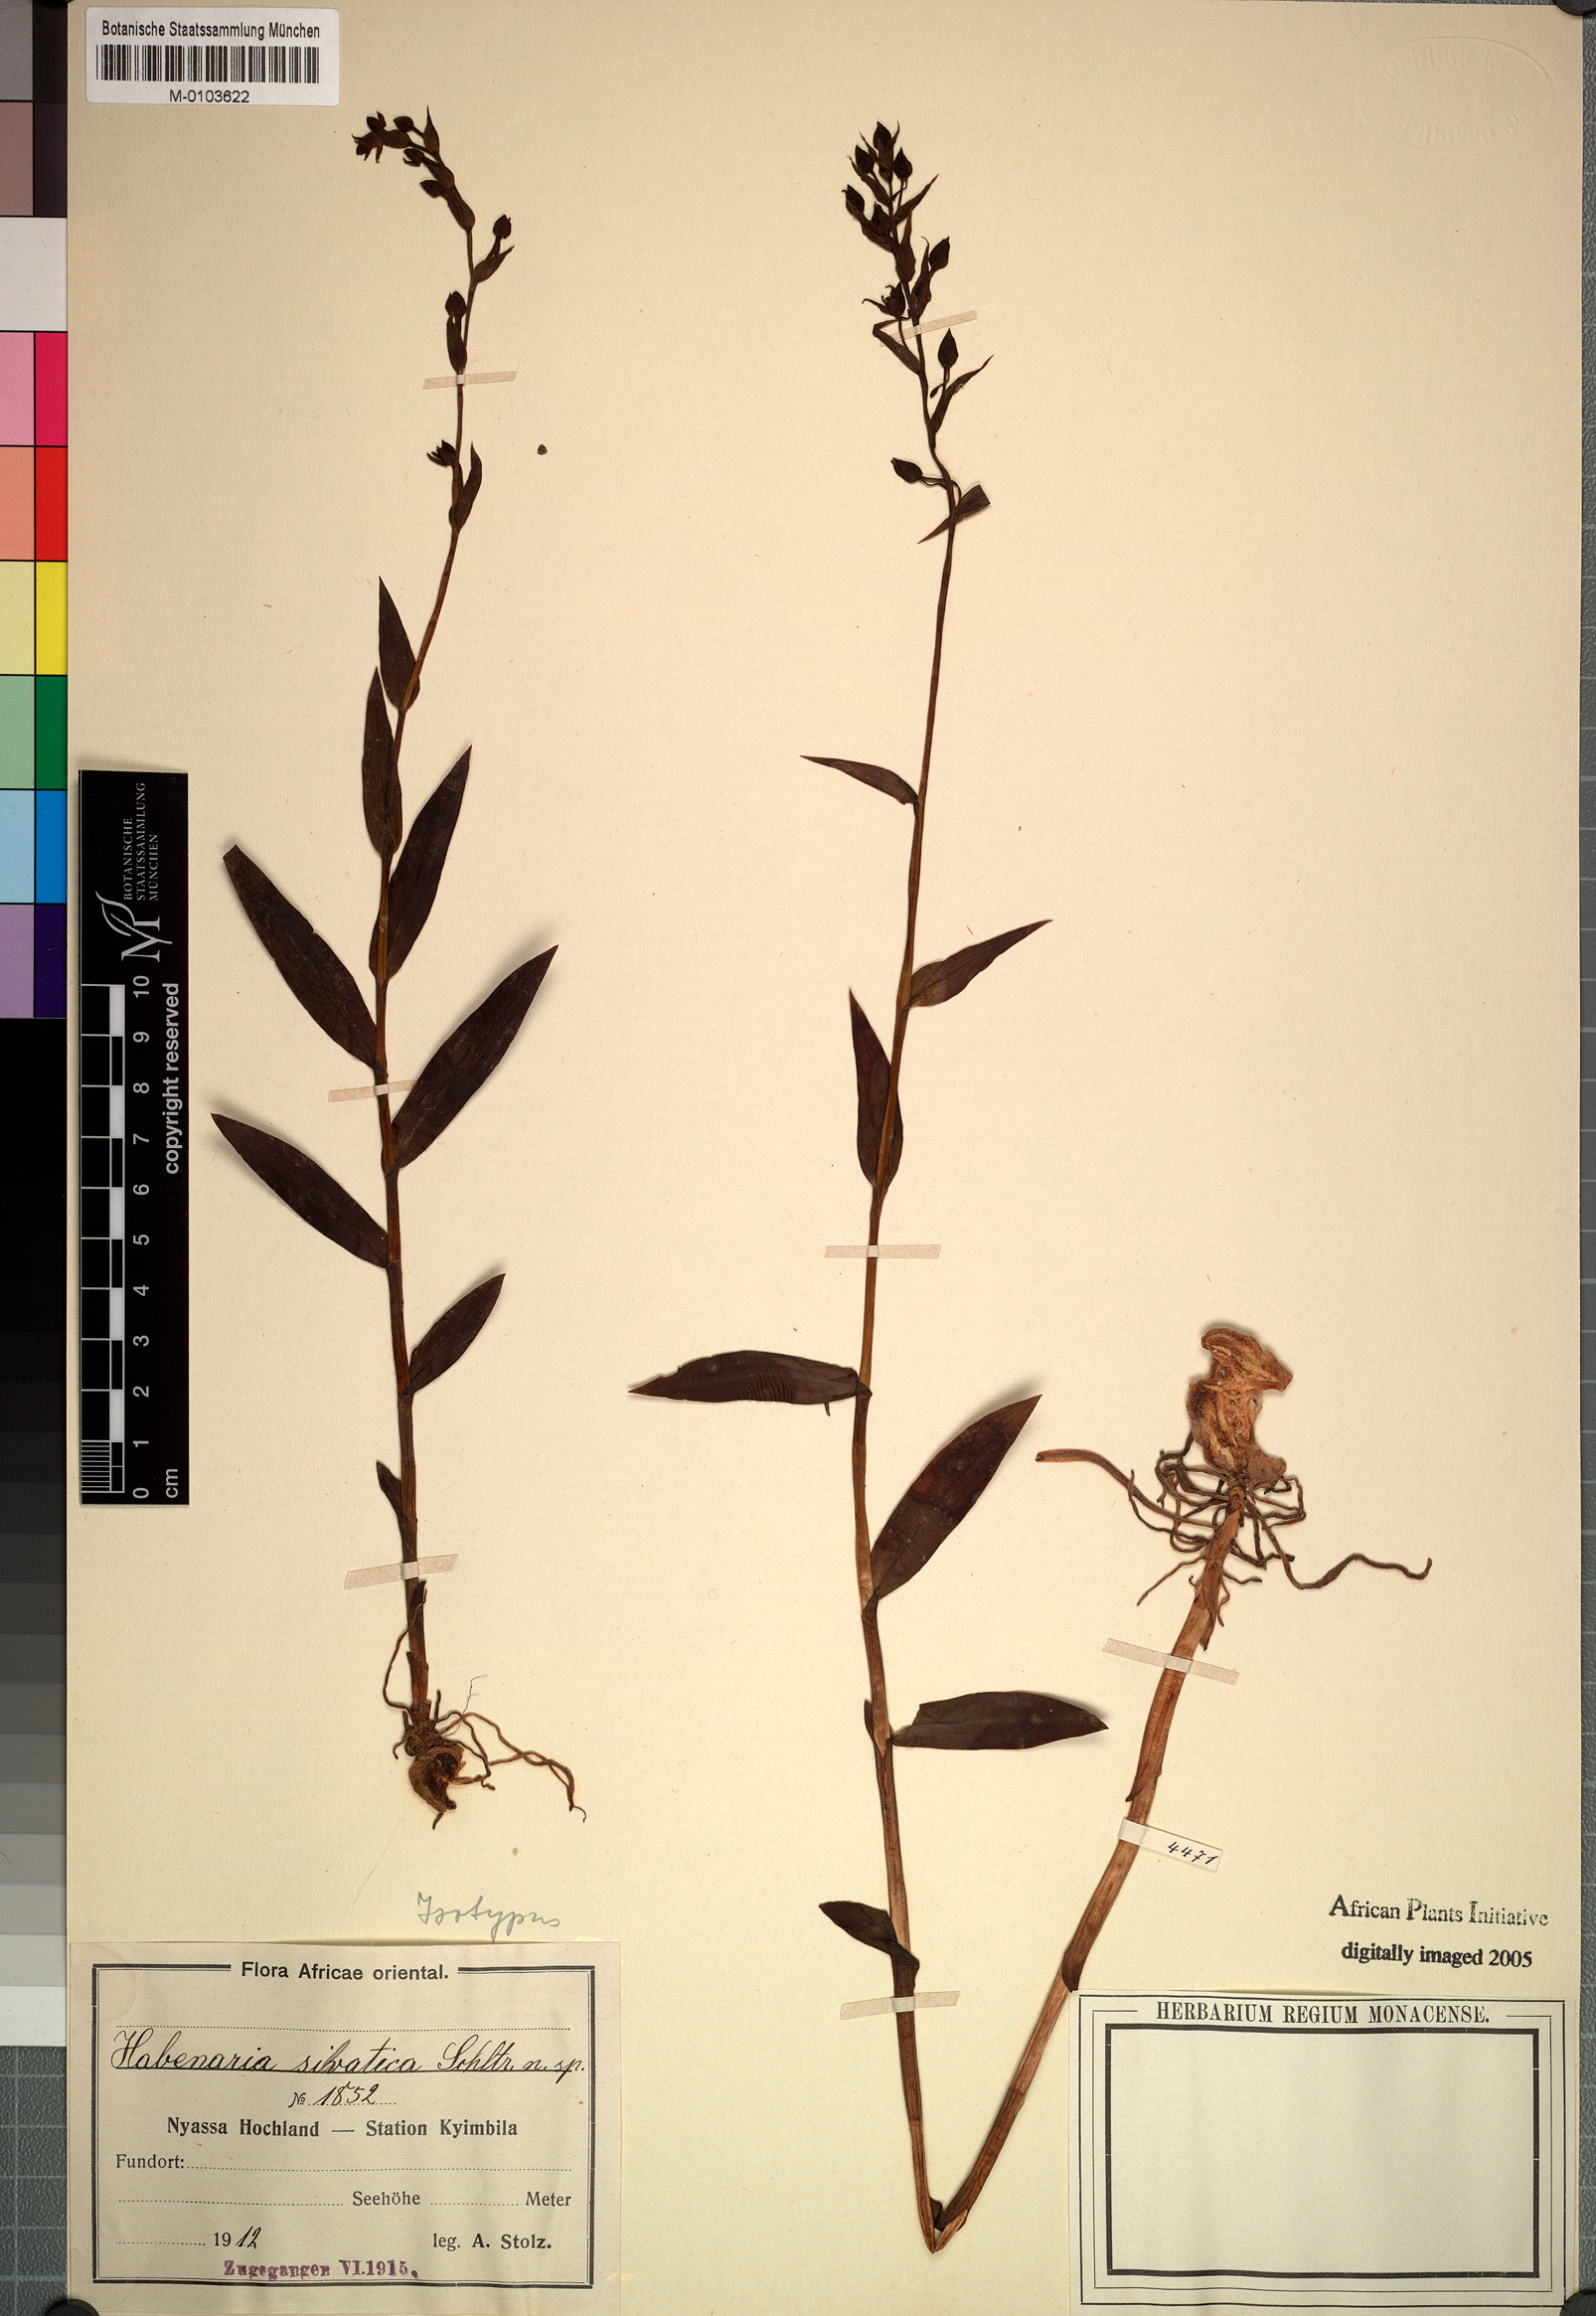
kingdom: Plantae
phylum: Tracheophyta
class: Liliopsida
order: Asparagales
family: Orchidaceae
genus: Habenaria
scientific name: Habenaria silvatica
